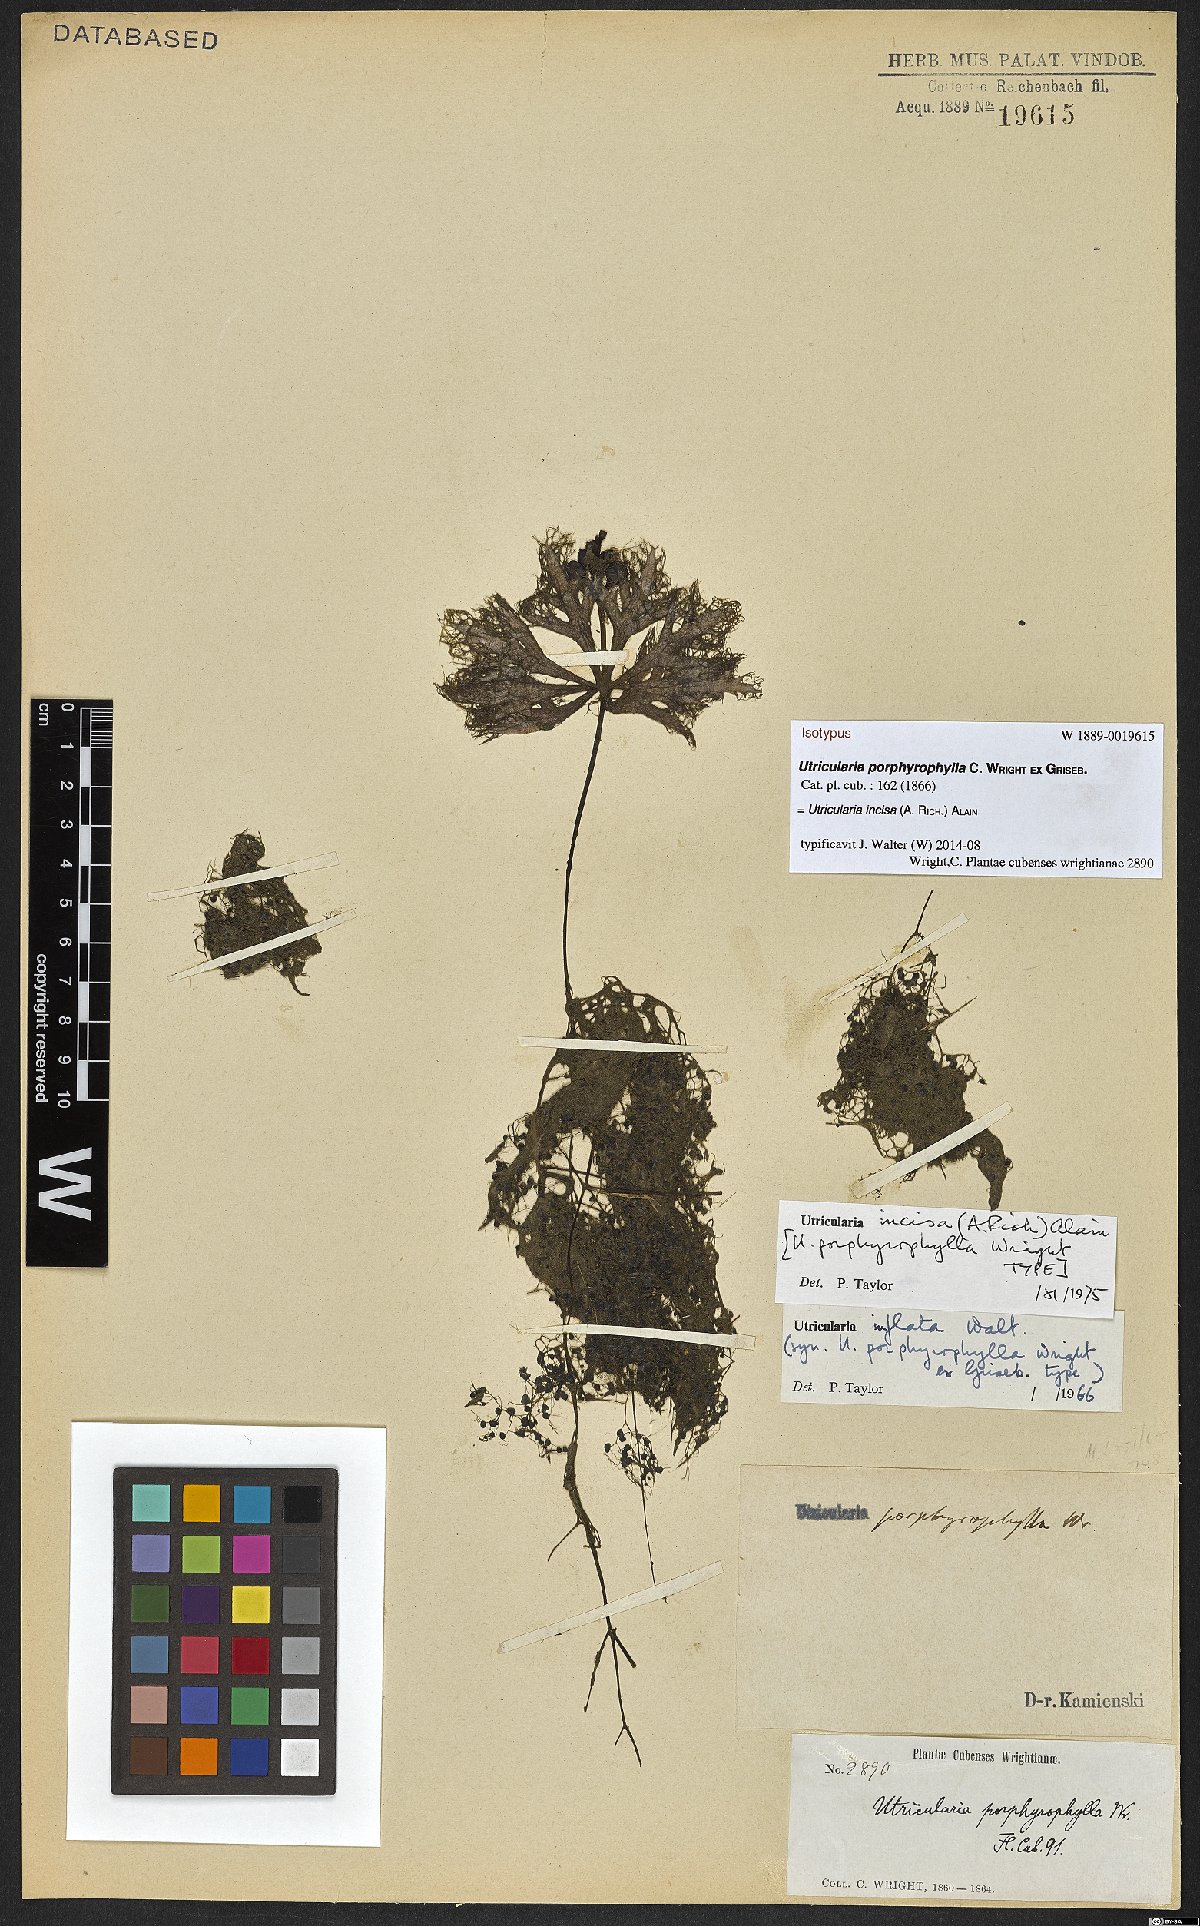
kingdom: Plantae
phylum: Tracheophyta
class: Magnoliopsida
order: Lamiales
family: Lentibulariaceae
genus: Utricularia
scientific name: Utricularia incisa
